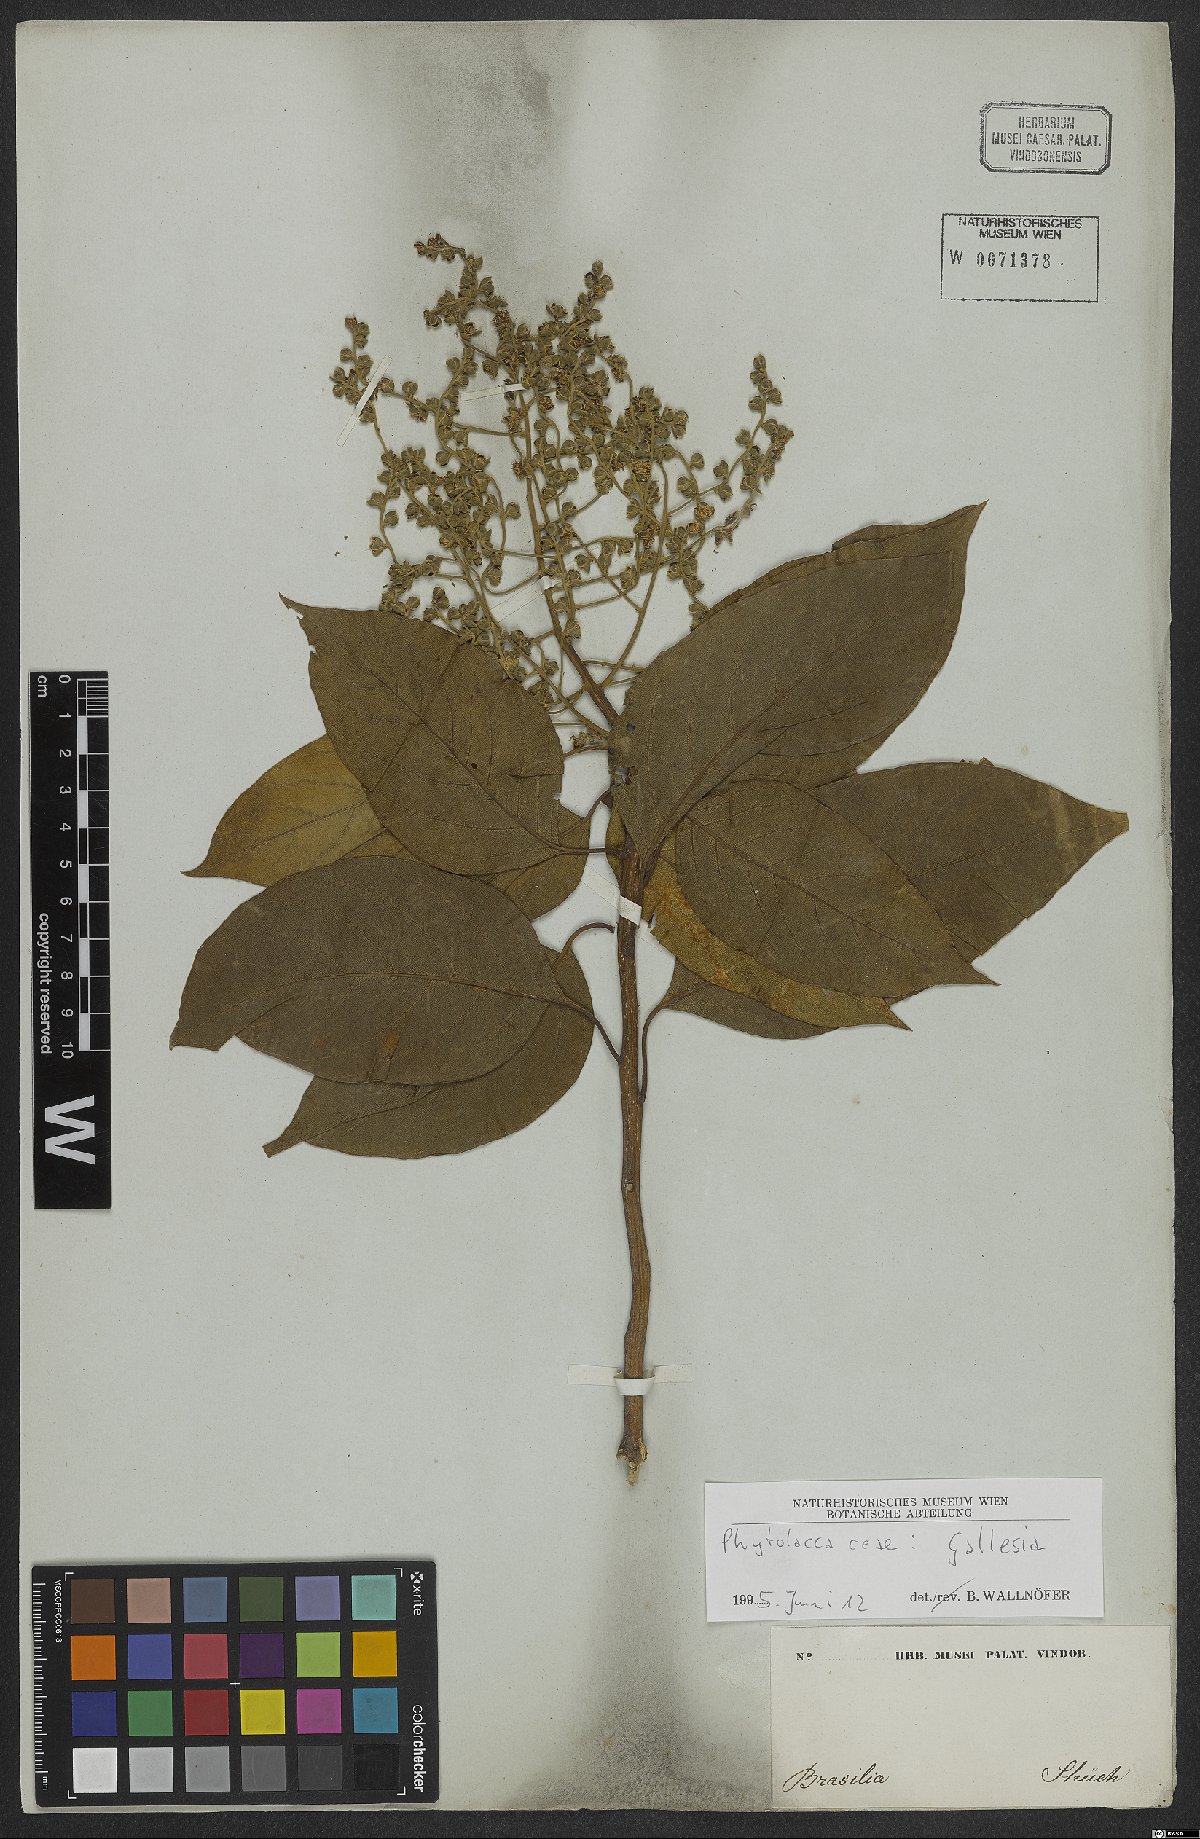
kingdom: Plantae
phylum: Tracheophyta
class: Magnoliopsida
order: Caryophyllales
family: Phytolaccaceae
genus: Gallesia
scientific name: Gallesia
